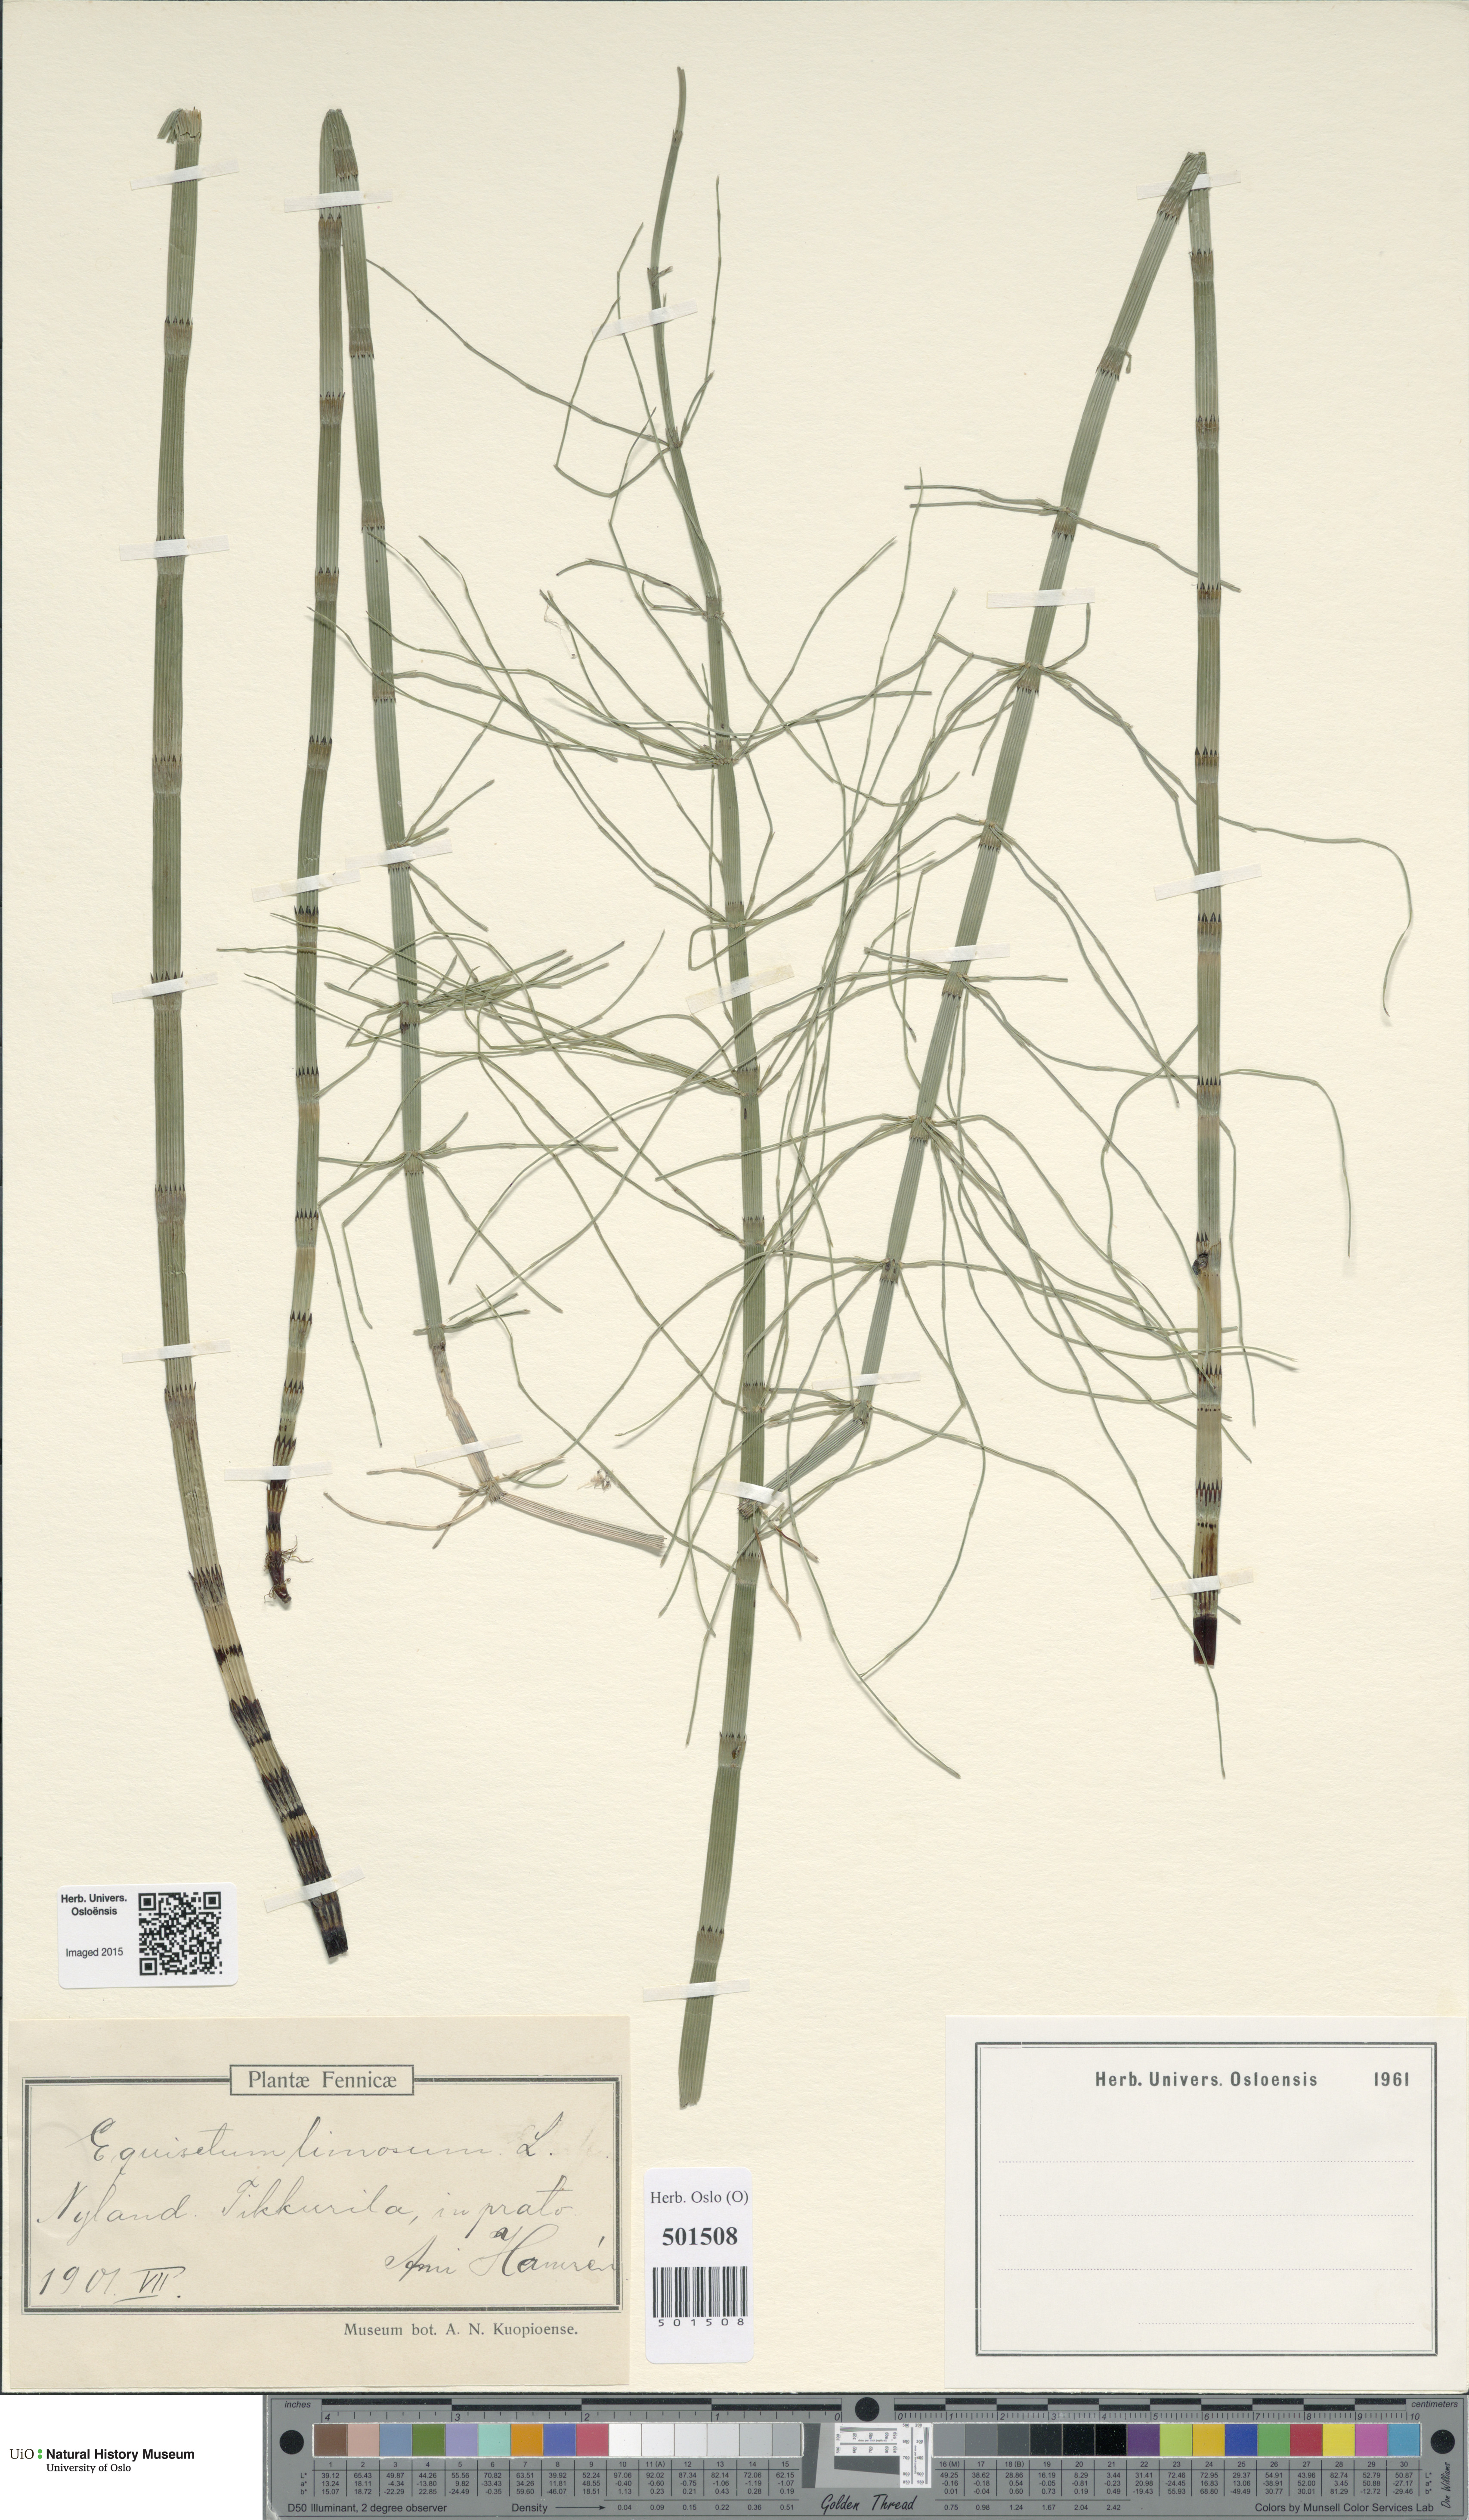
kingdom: Plantae
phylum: Tracheophyta
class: Polypodiopsida
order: Equisetales
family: Equisetaceae
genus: Equisetum
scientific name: Equisetum fluviatile
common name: Water horsetail
